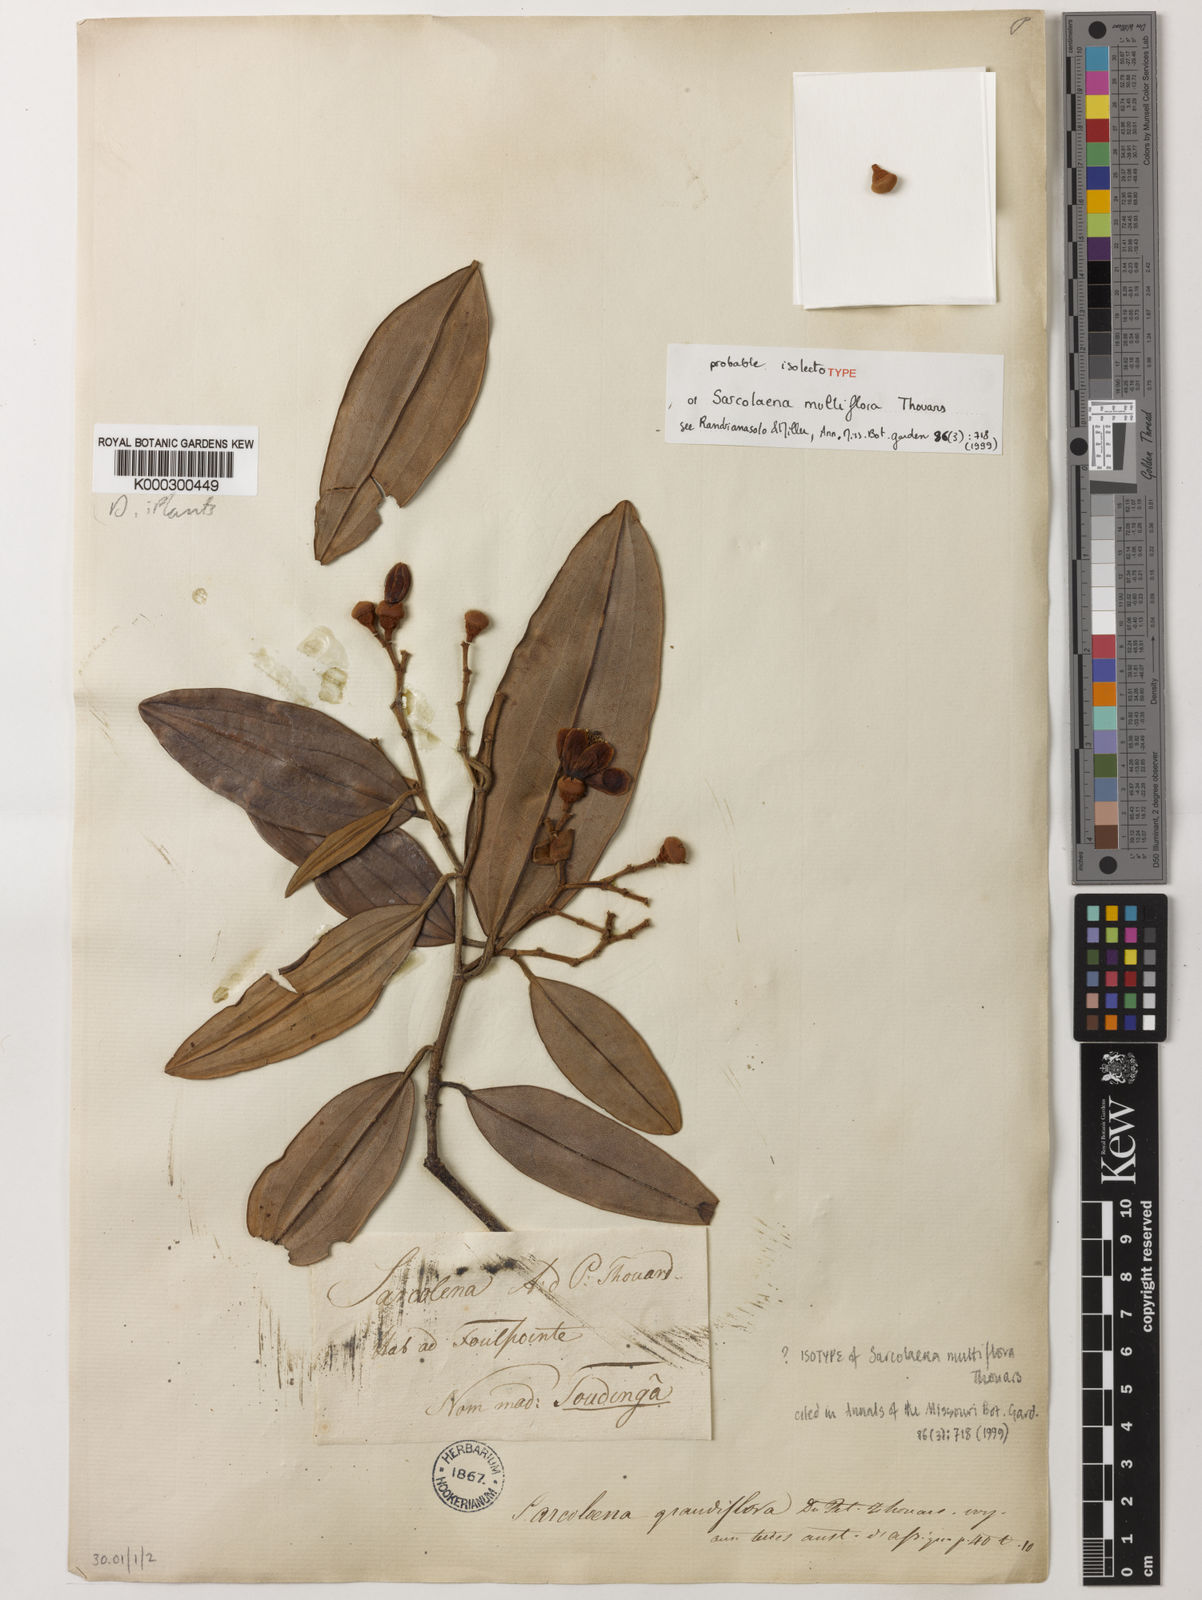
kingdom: Plantae
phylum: Tracheophyta
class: Magnoliopsida
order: Malvales
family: Sarcolaenaceae
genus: Sarcolaena
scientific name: Sarcolaena grandiflora
